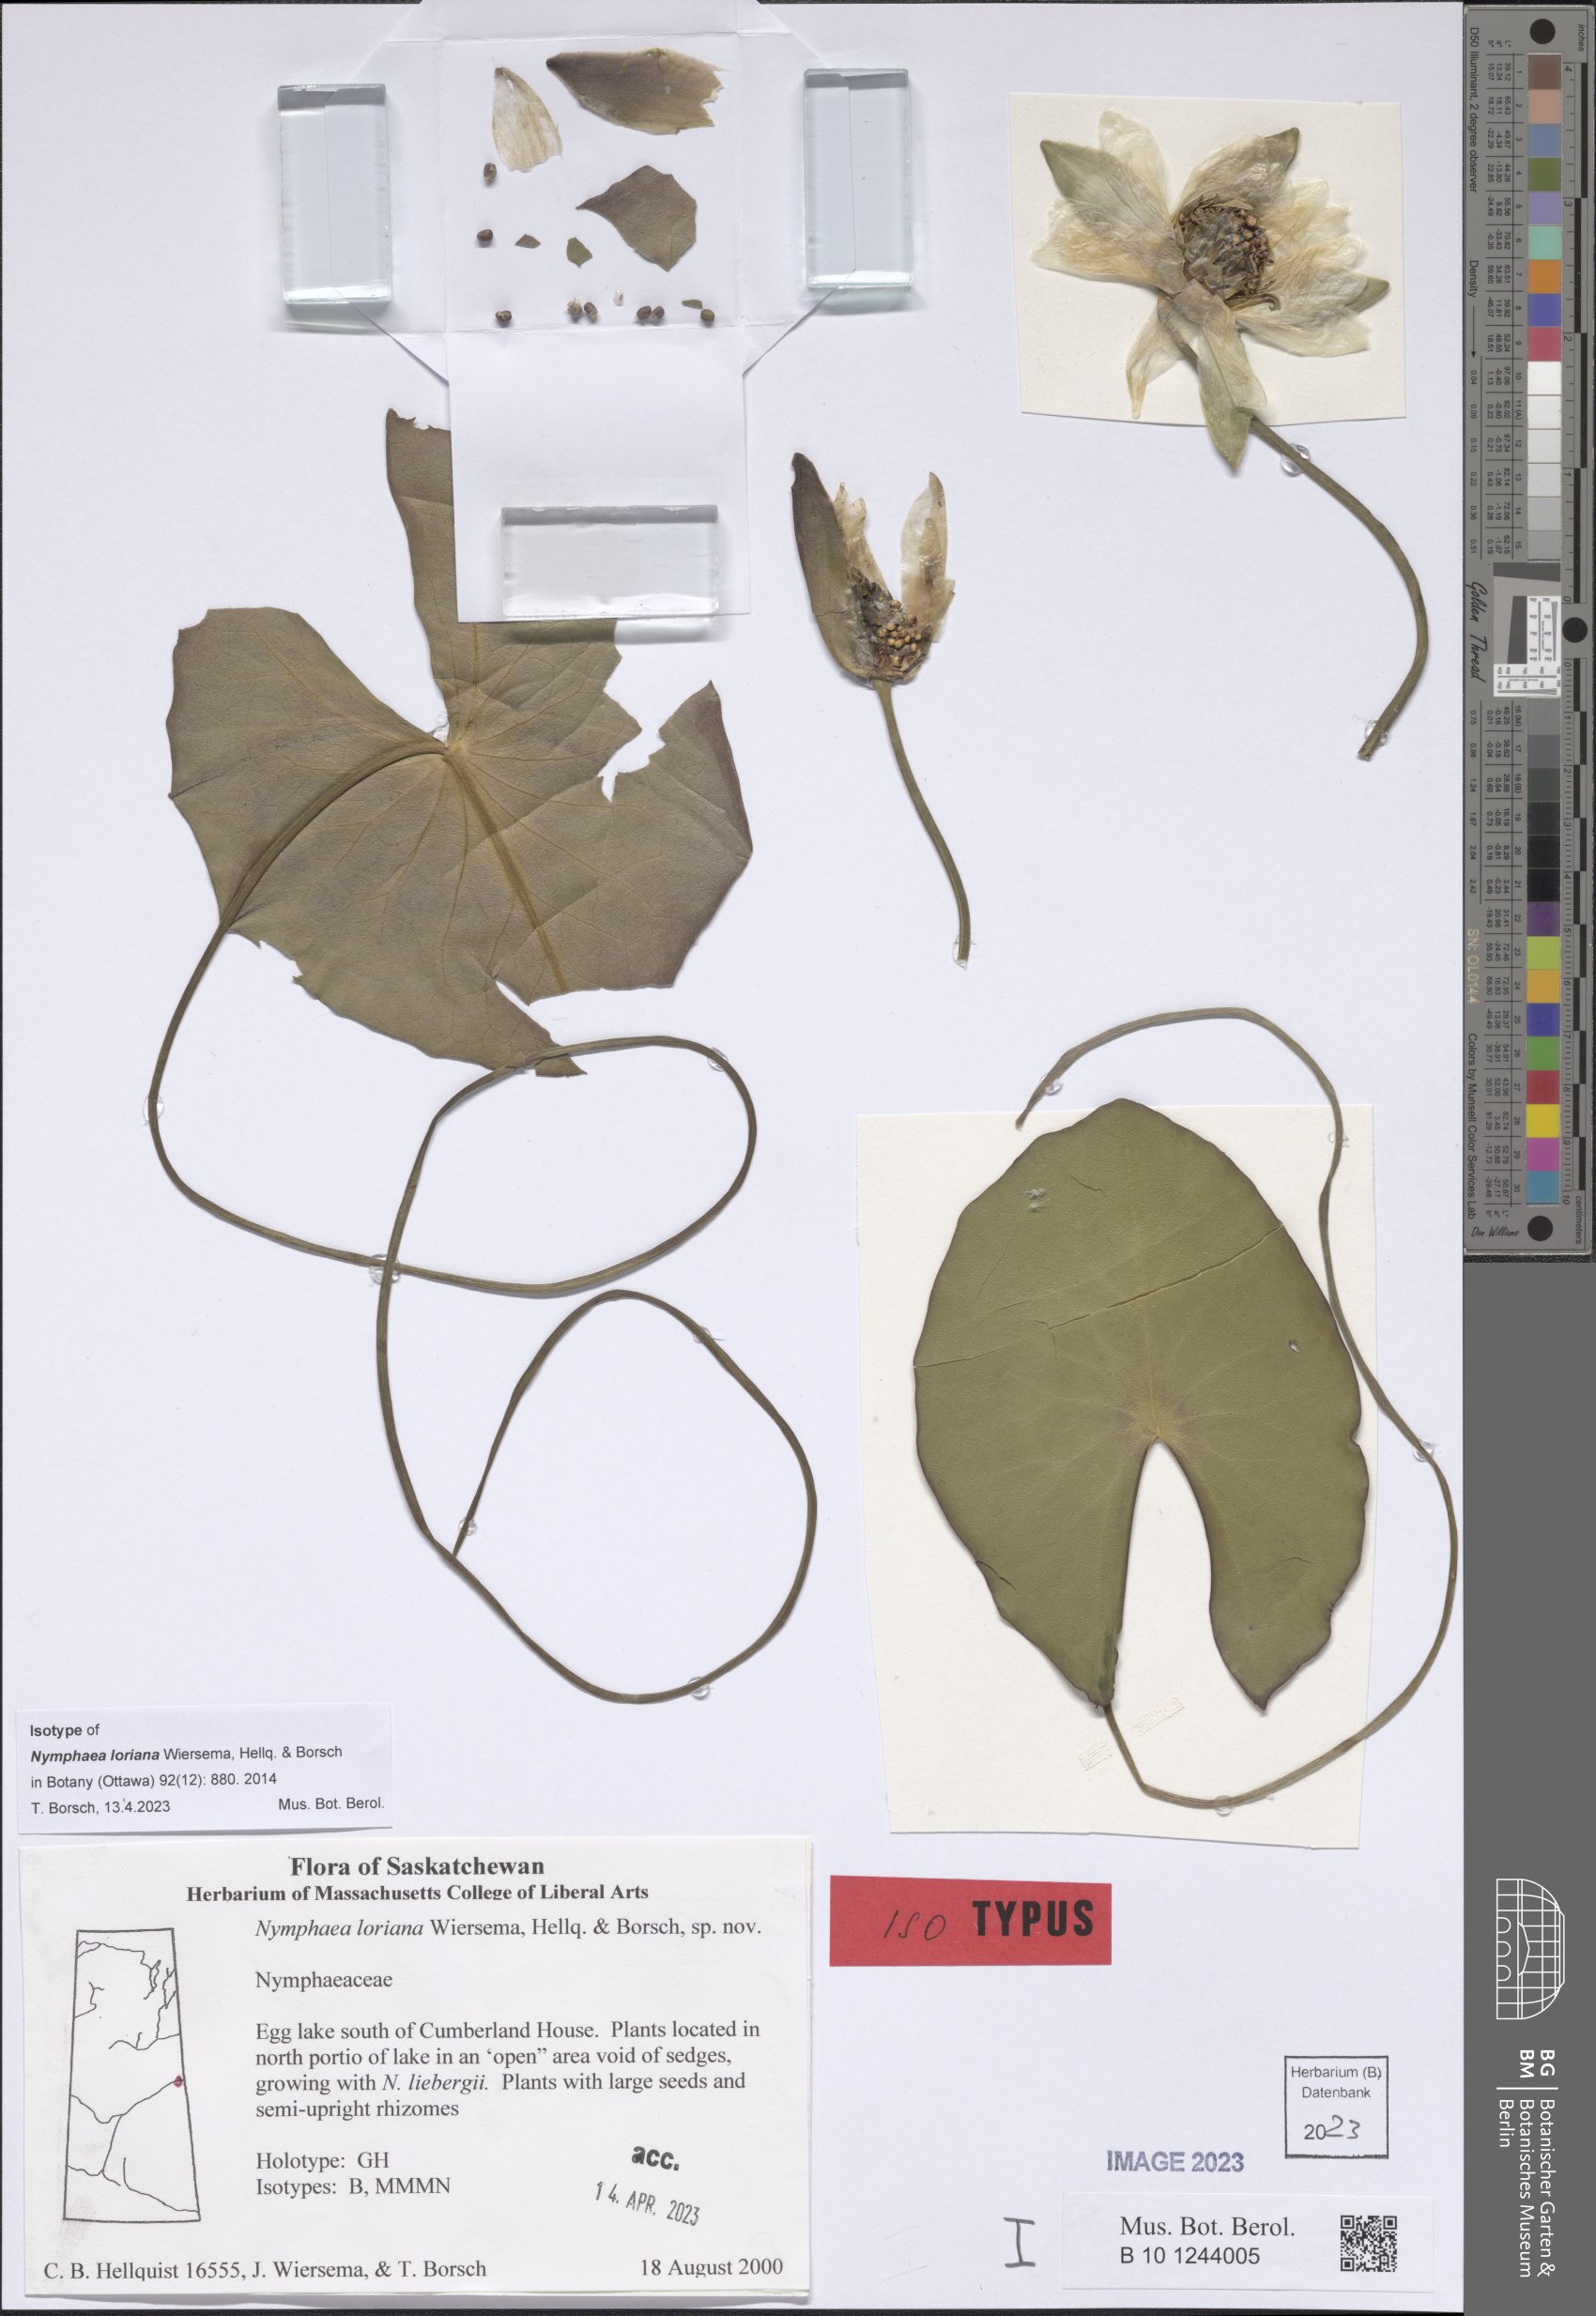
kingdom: Plantae
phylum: Tracheophyta
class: Magnoliopsida
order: Nymphaeales
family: Nymphaeaceae
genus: Nymphaea
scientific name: Nymphaea loriana
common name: Lori's water-lily
